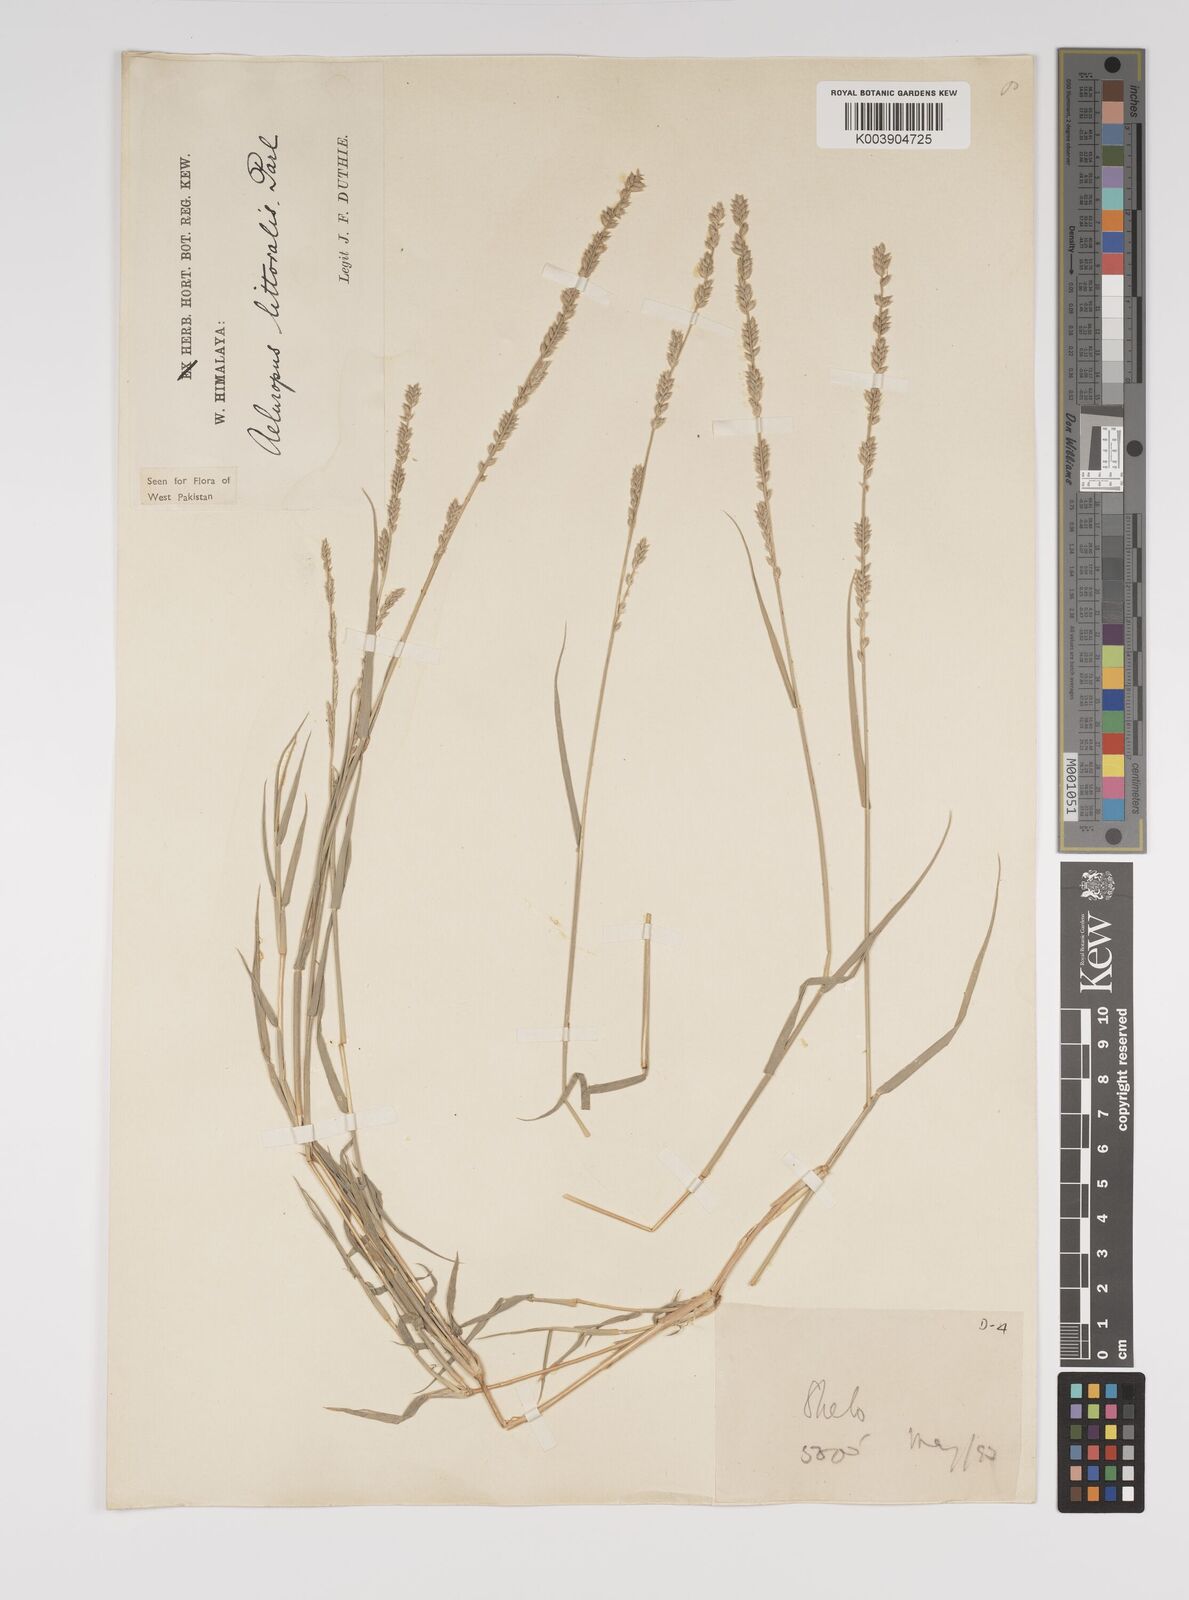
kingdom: Plantae
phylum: Tracheophyta
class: Liliopsida
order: Poales
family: Poaceae
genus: Aeluropus
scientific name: Aeluropus littoralis
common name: Indian walnut
